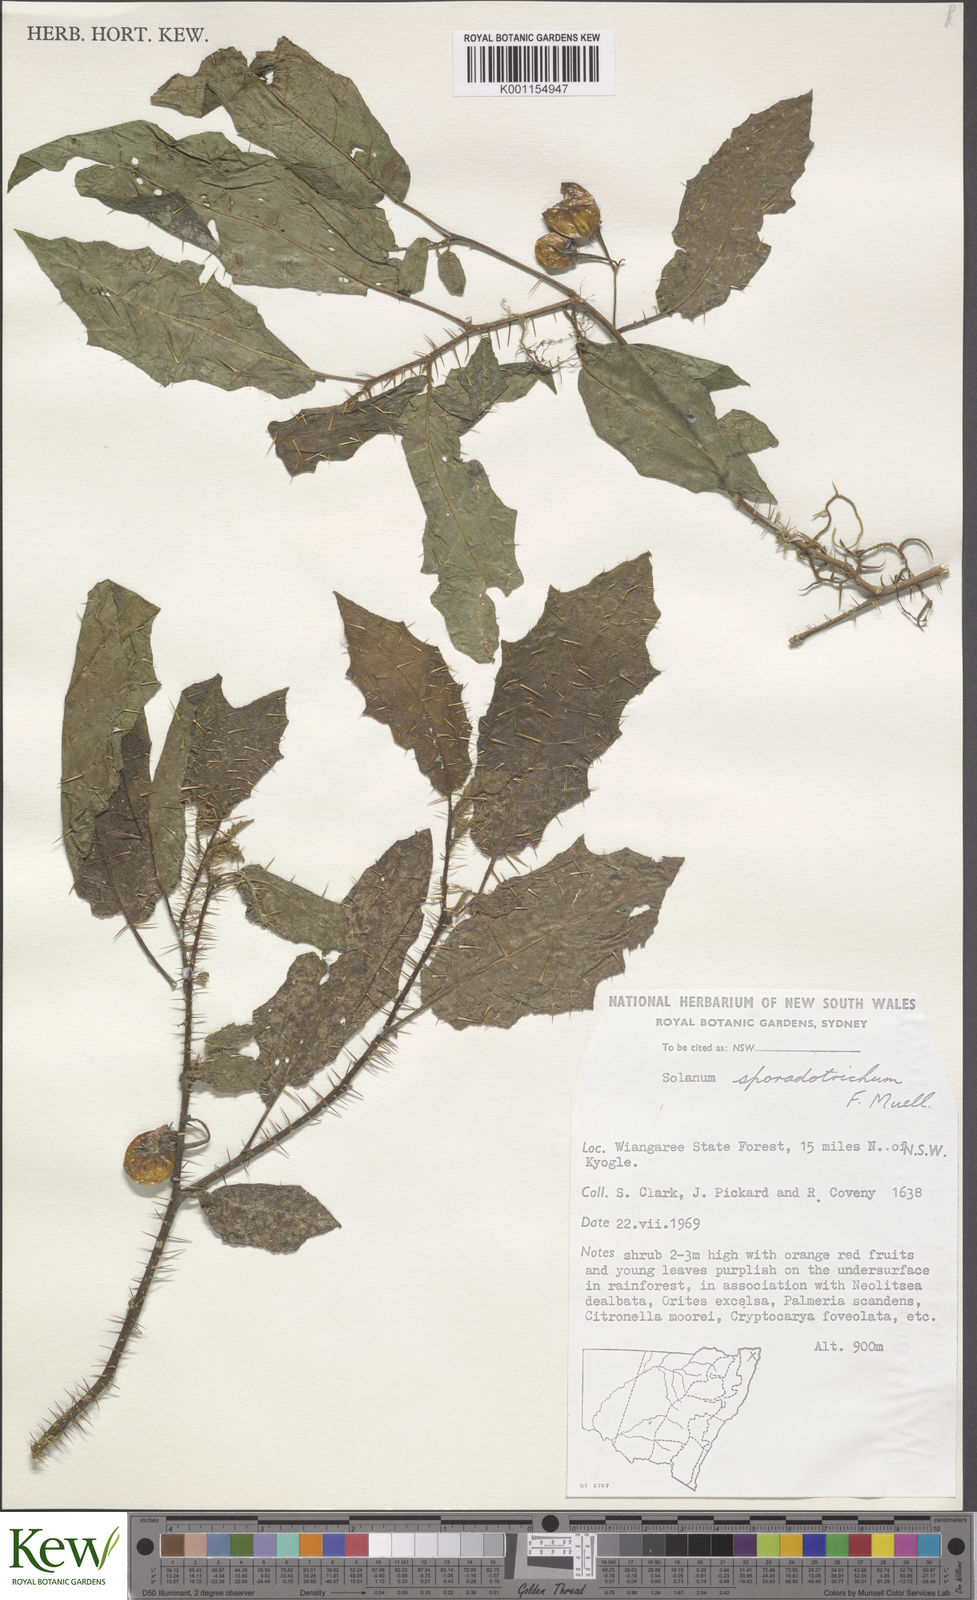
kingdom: Plantae
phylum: Tracheophyta
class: Magnoliopsida
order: Solanales
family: Solanaceae
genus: Solanum
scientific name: Solanum sporadotrichum
